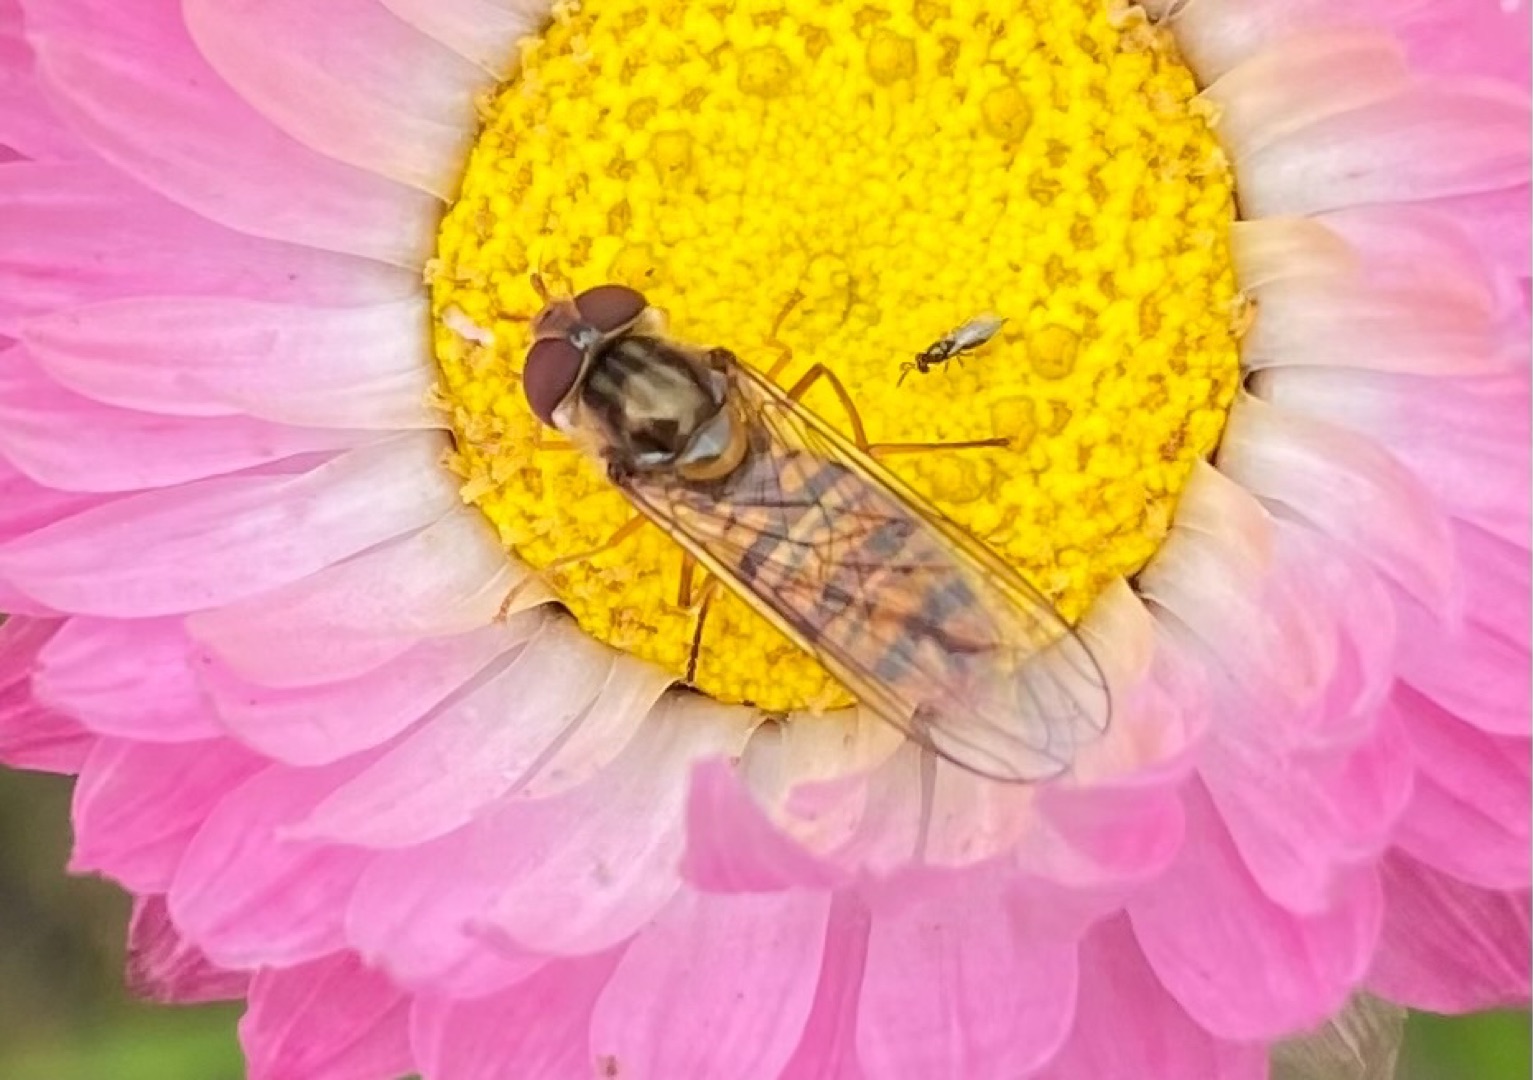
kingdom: Animalia
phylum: Arthropoda
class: Insecta
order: Diptera
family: Syrphidae
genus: Episyrphus
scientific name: Episyrphus balteatus
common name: Dobbeltbåndet svirreflue
